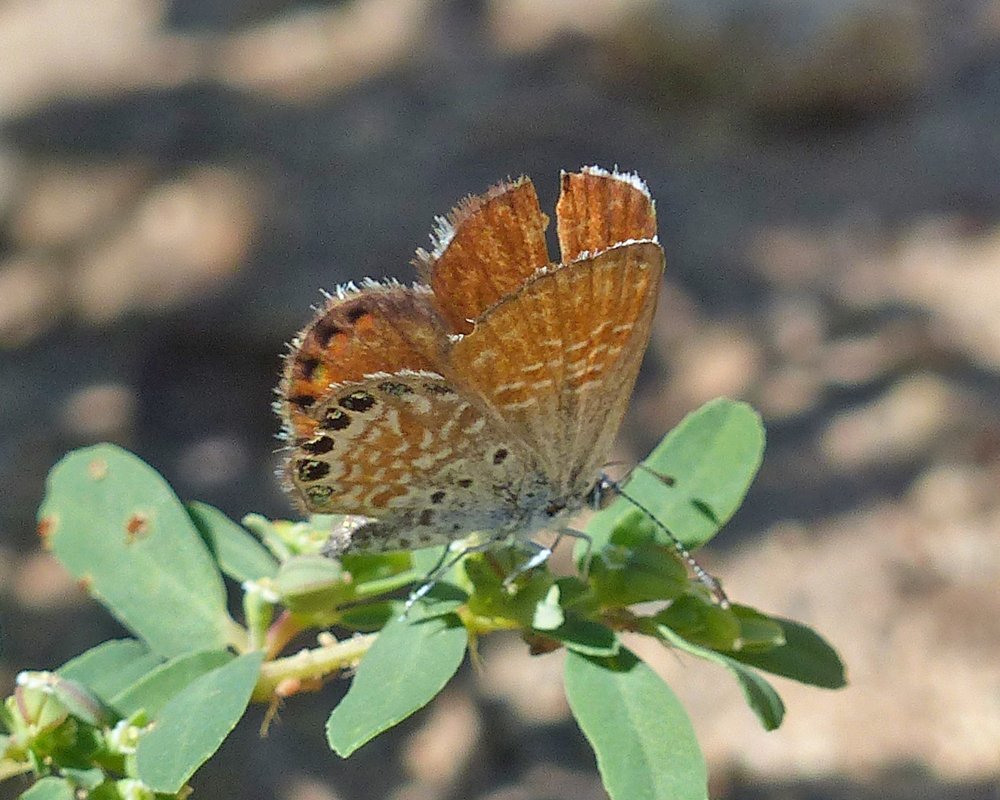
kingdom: Animalia
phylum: Arthropoda
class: Insecta
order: Lepidoptera
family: Lycaenidae
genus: Brephidium
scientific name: Brephidium exilis
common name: Western Pygmy-Blue
